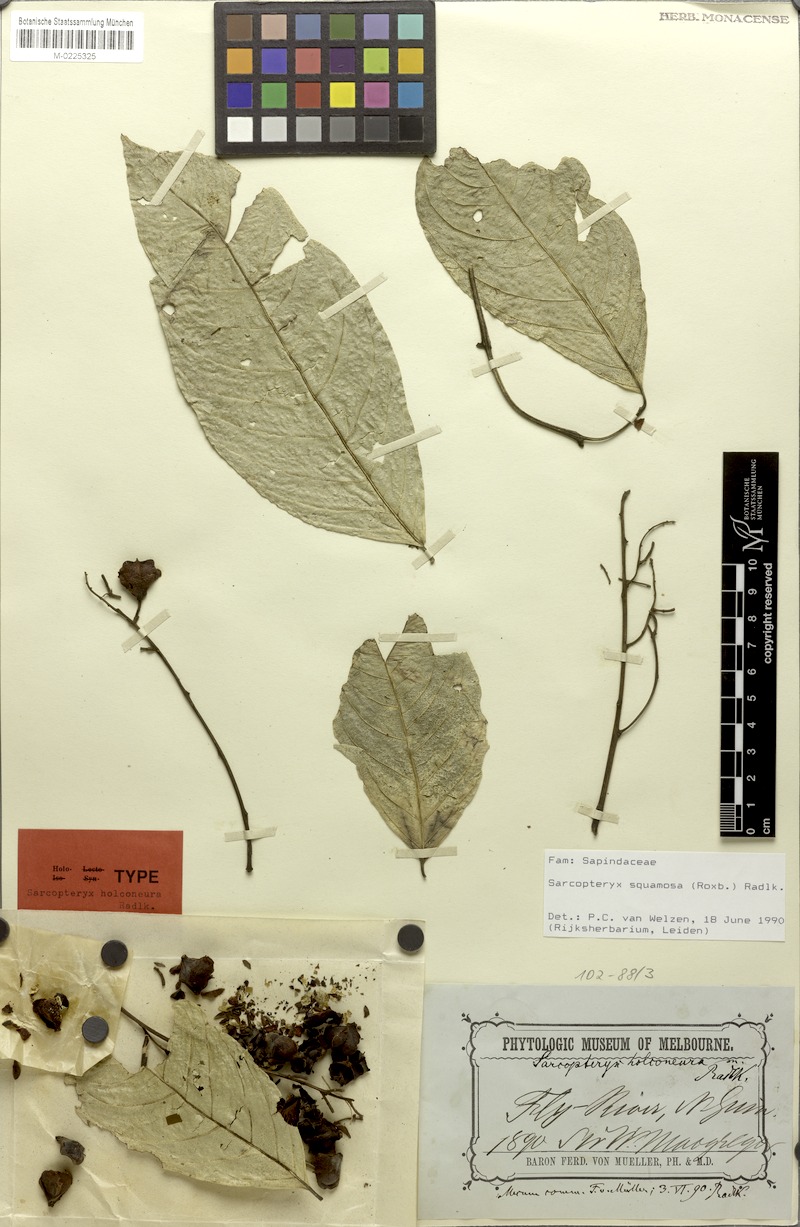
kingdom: Plantae
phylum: Tracheophyta
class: Magnoliopsida
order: Sapindales
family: Sapindaceae
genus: Sarcopteryx
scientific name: Sarcopteryx squamosa
